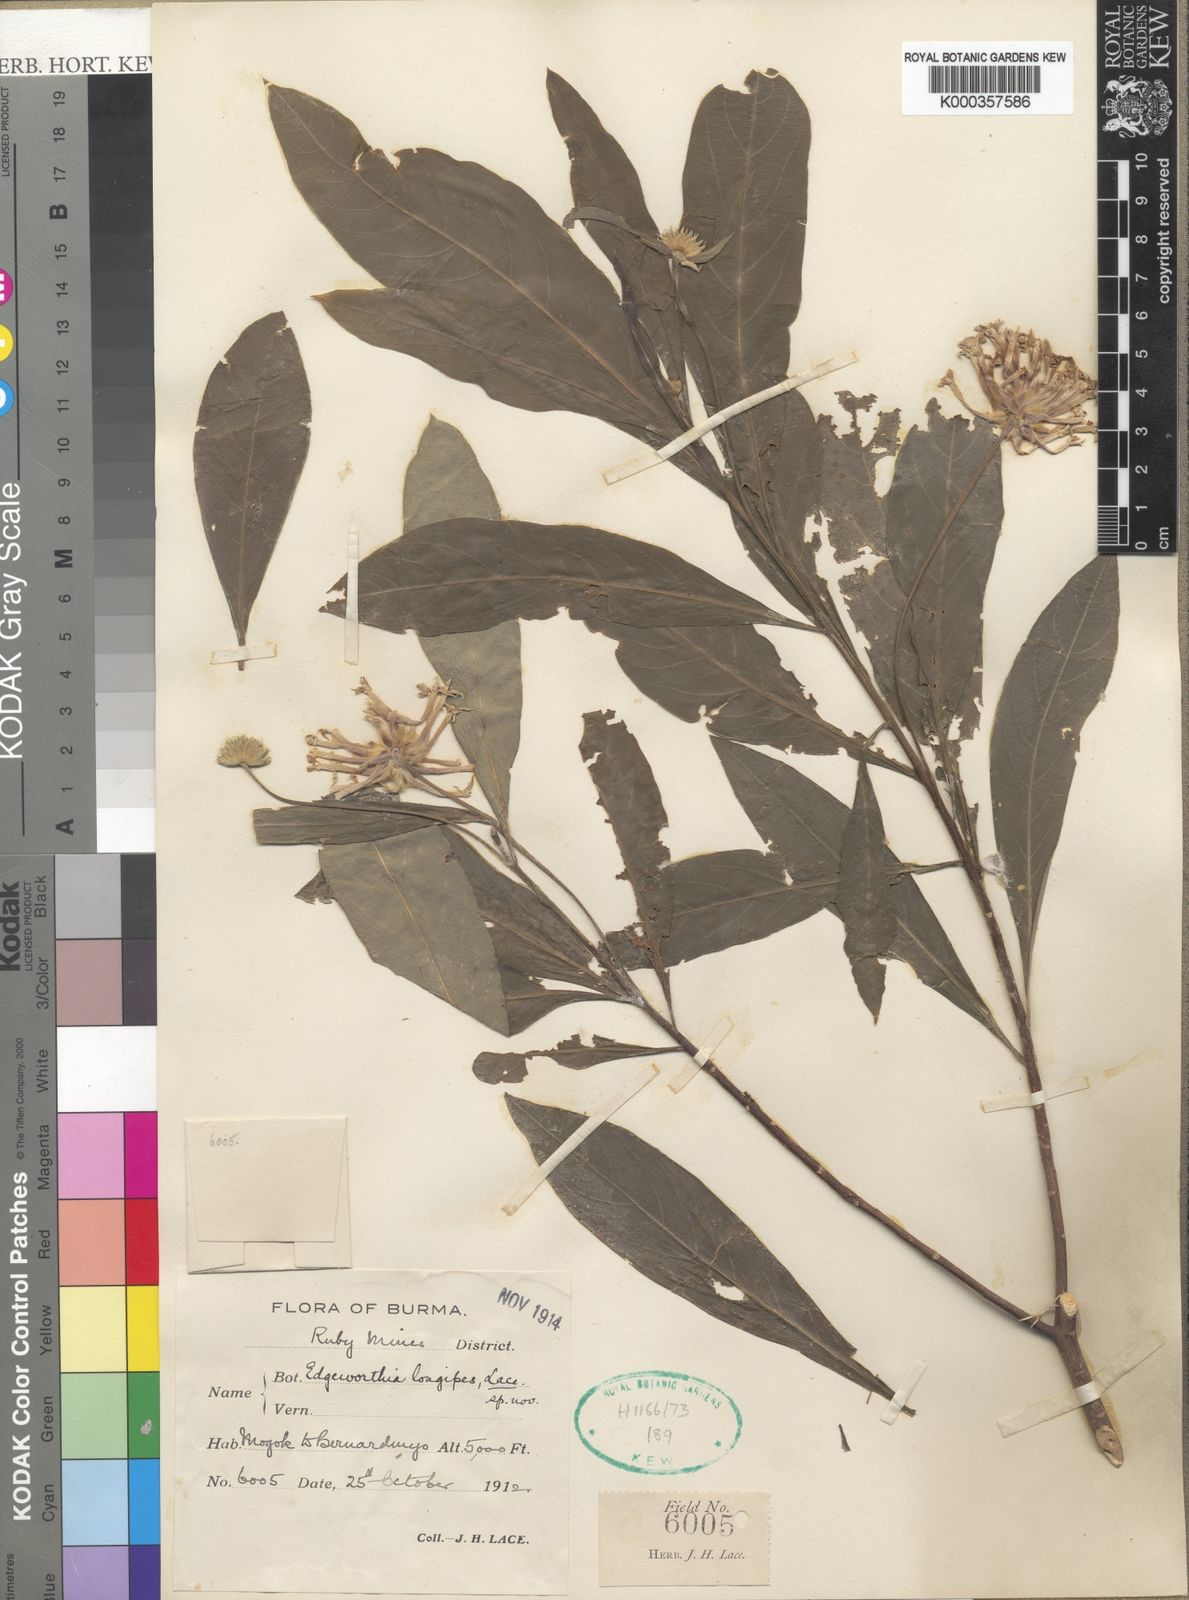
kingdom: Plantae
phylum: Tracheophyta
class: Magnoliopsida
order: Malvales
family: Thymelaeaceae
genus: Edgeworthia
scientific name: Edgeworthia gardneri
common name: Nepalese paperbush
